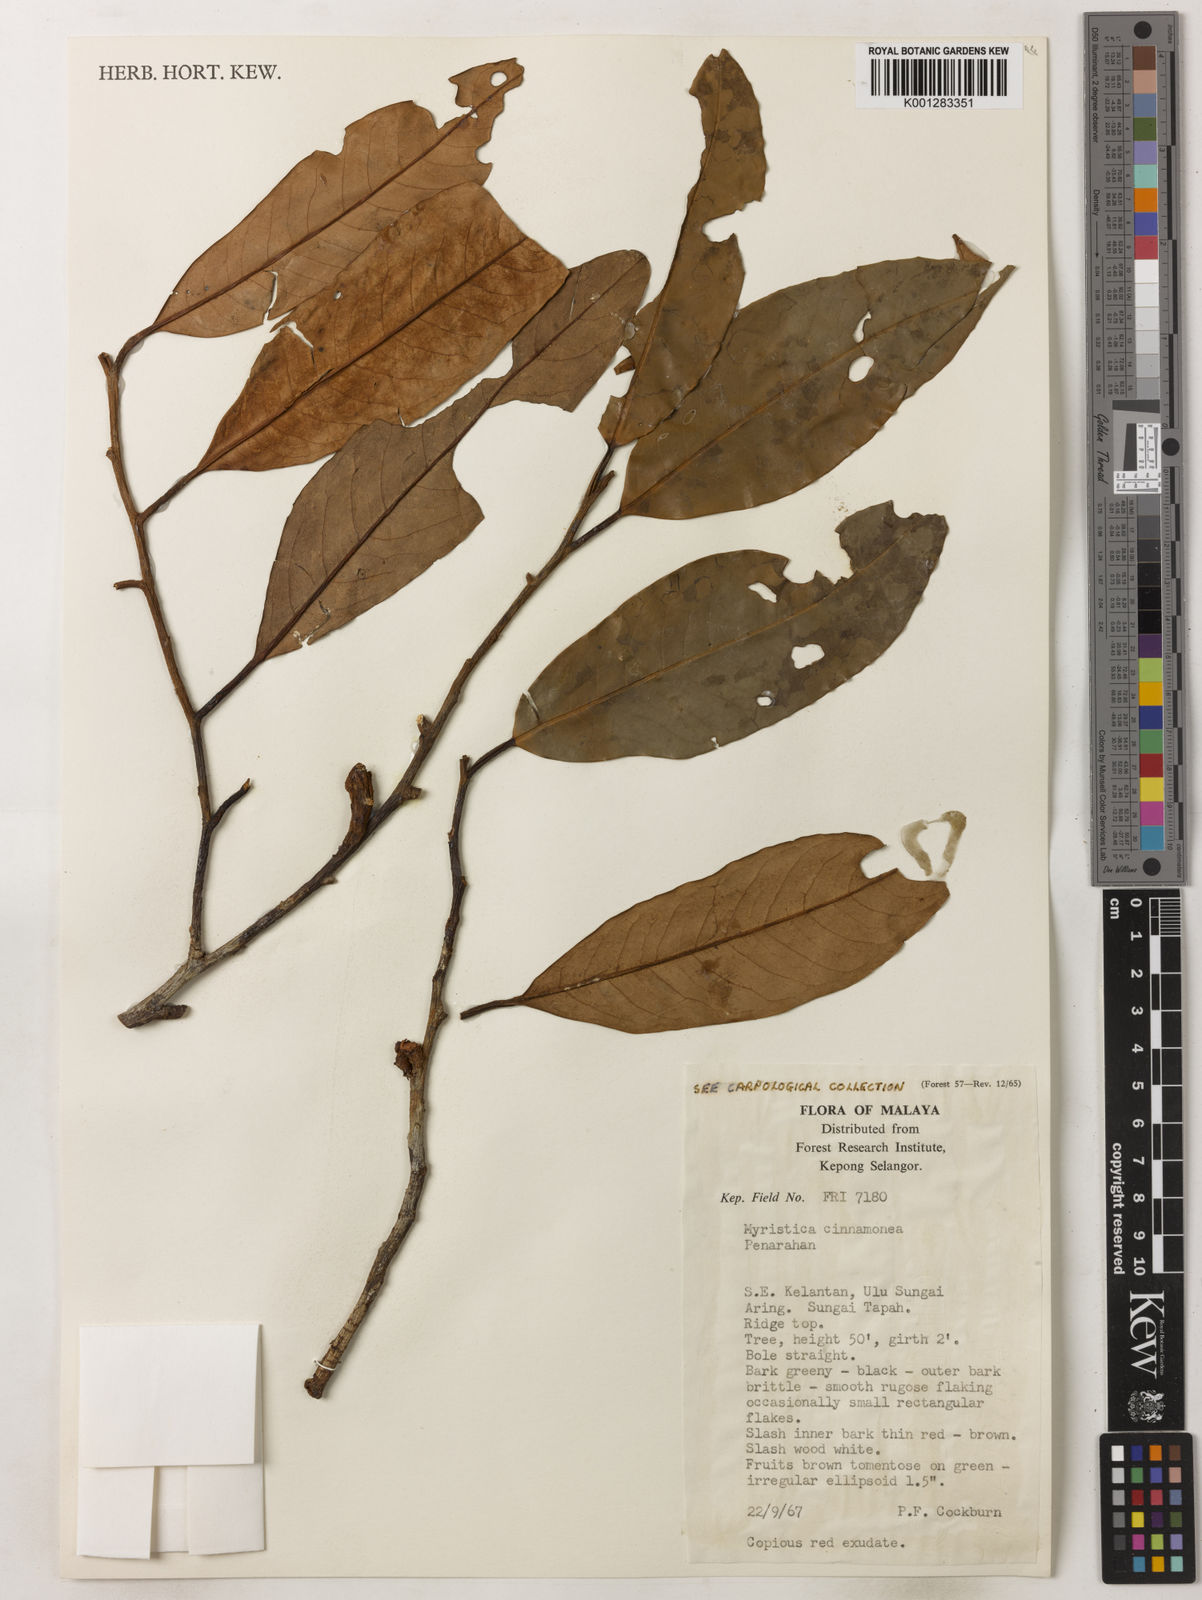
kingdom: Plantae
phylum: Tracheophyta
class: Magnoliopsida
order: Magnoliales
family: Myristicaceae
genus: Myristica
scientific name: Myristica cinnamomea
